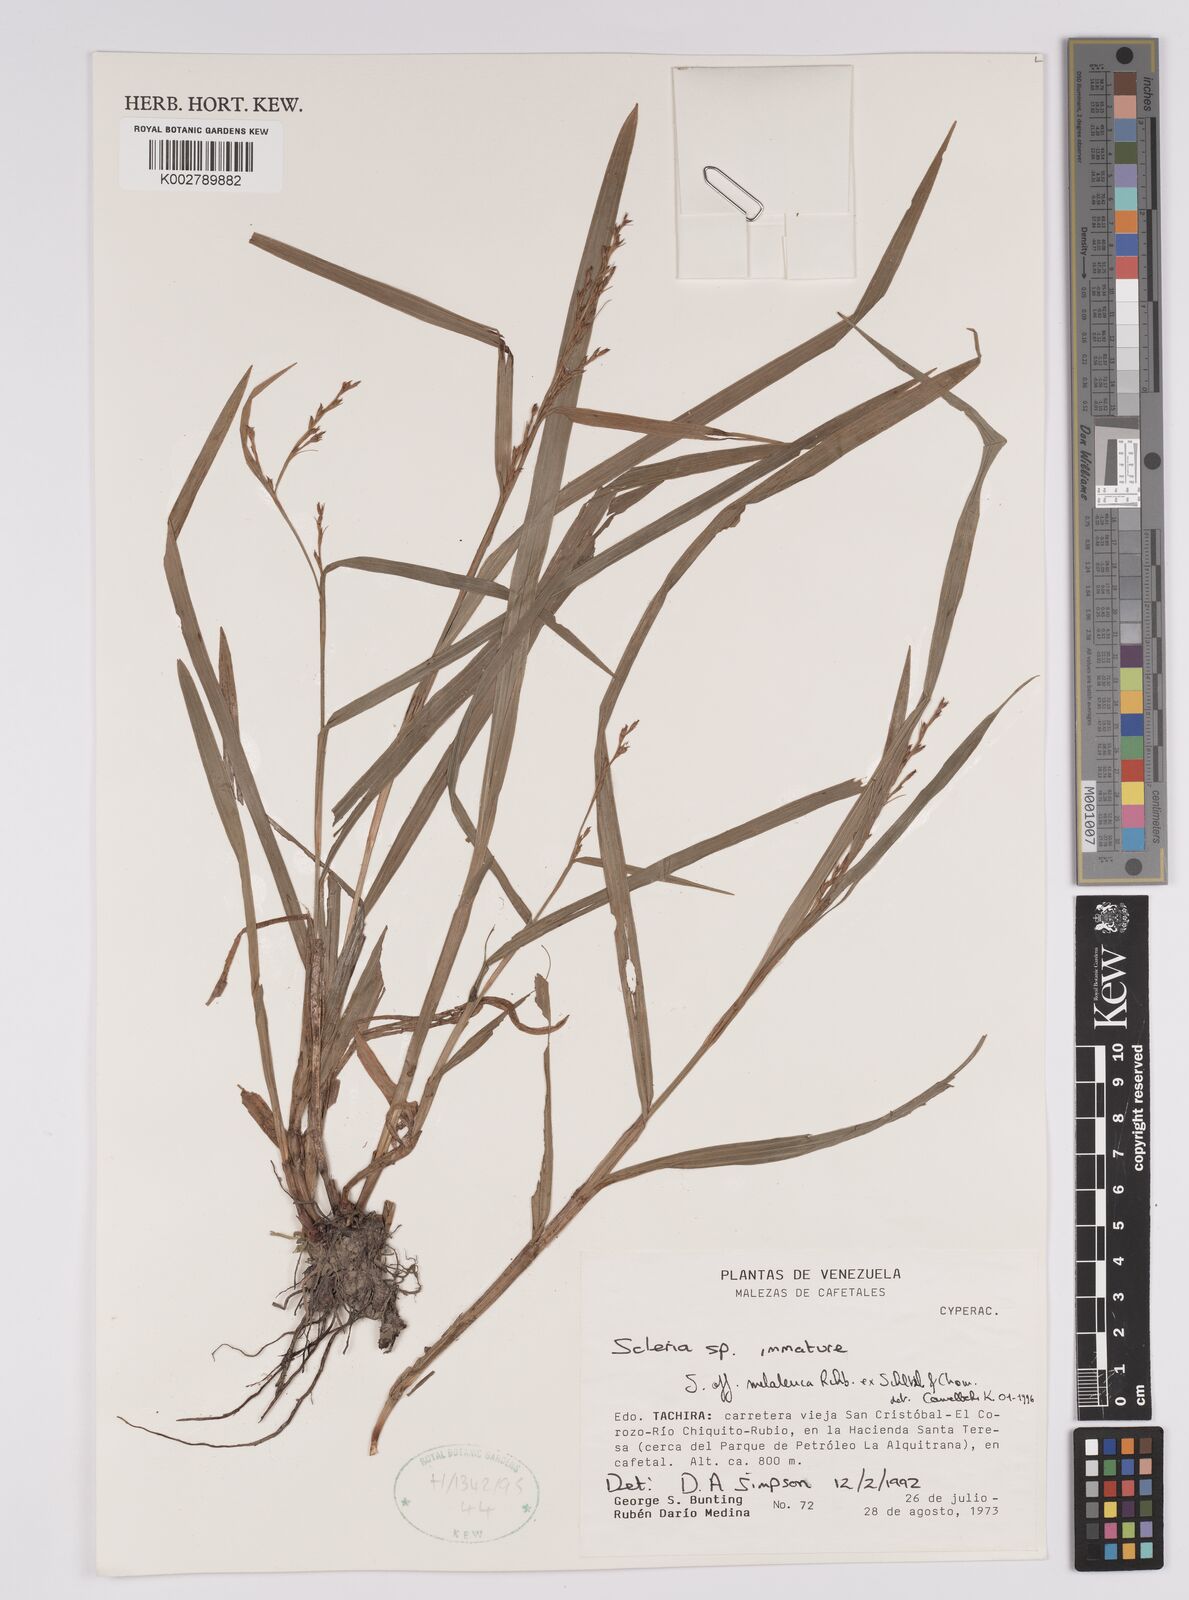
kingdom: Plantae
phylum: Tracheophyta
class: Liliopsida
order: Poales
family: Cyperaceae
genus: Scleria
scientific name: Scleria gaertneri
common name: Cortadera blanca
